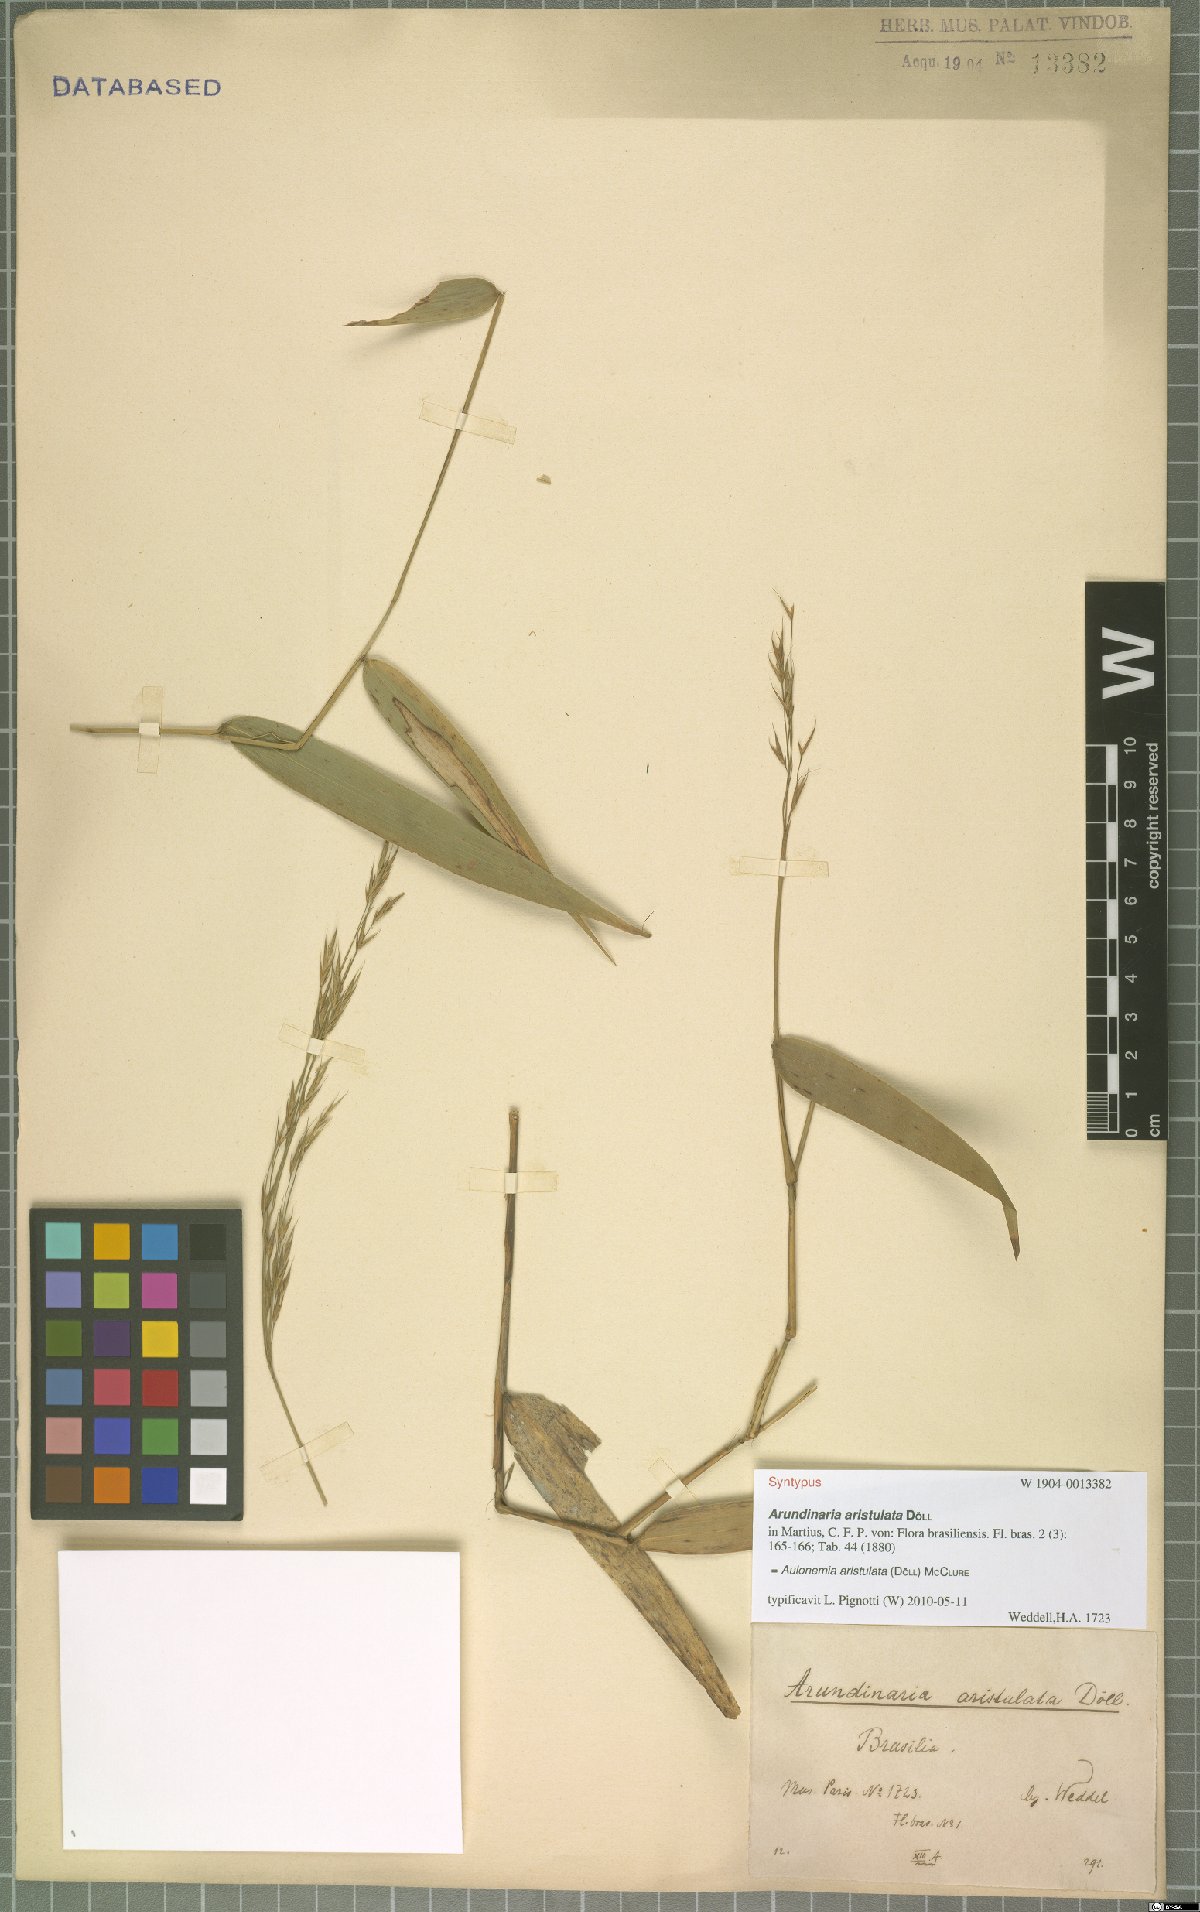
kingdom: Plantae
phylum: Tracheophyta
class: Liliopsida
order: Poales
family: Poaceae
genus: Aulonemia
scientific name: Aulonemia aristulata
